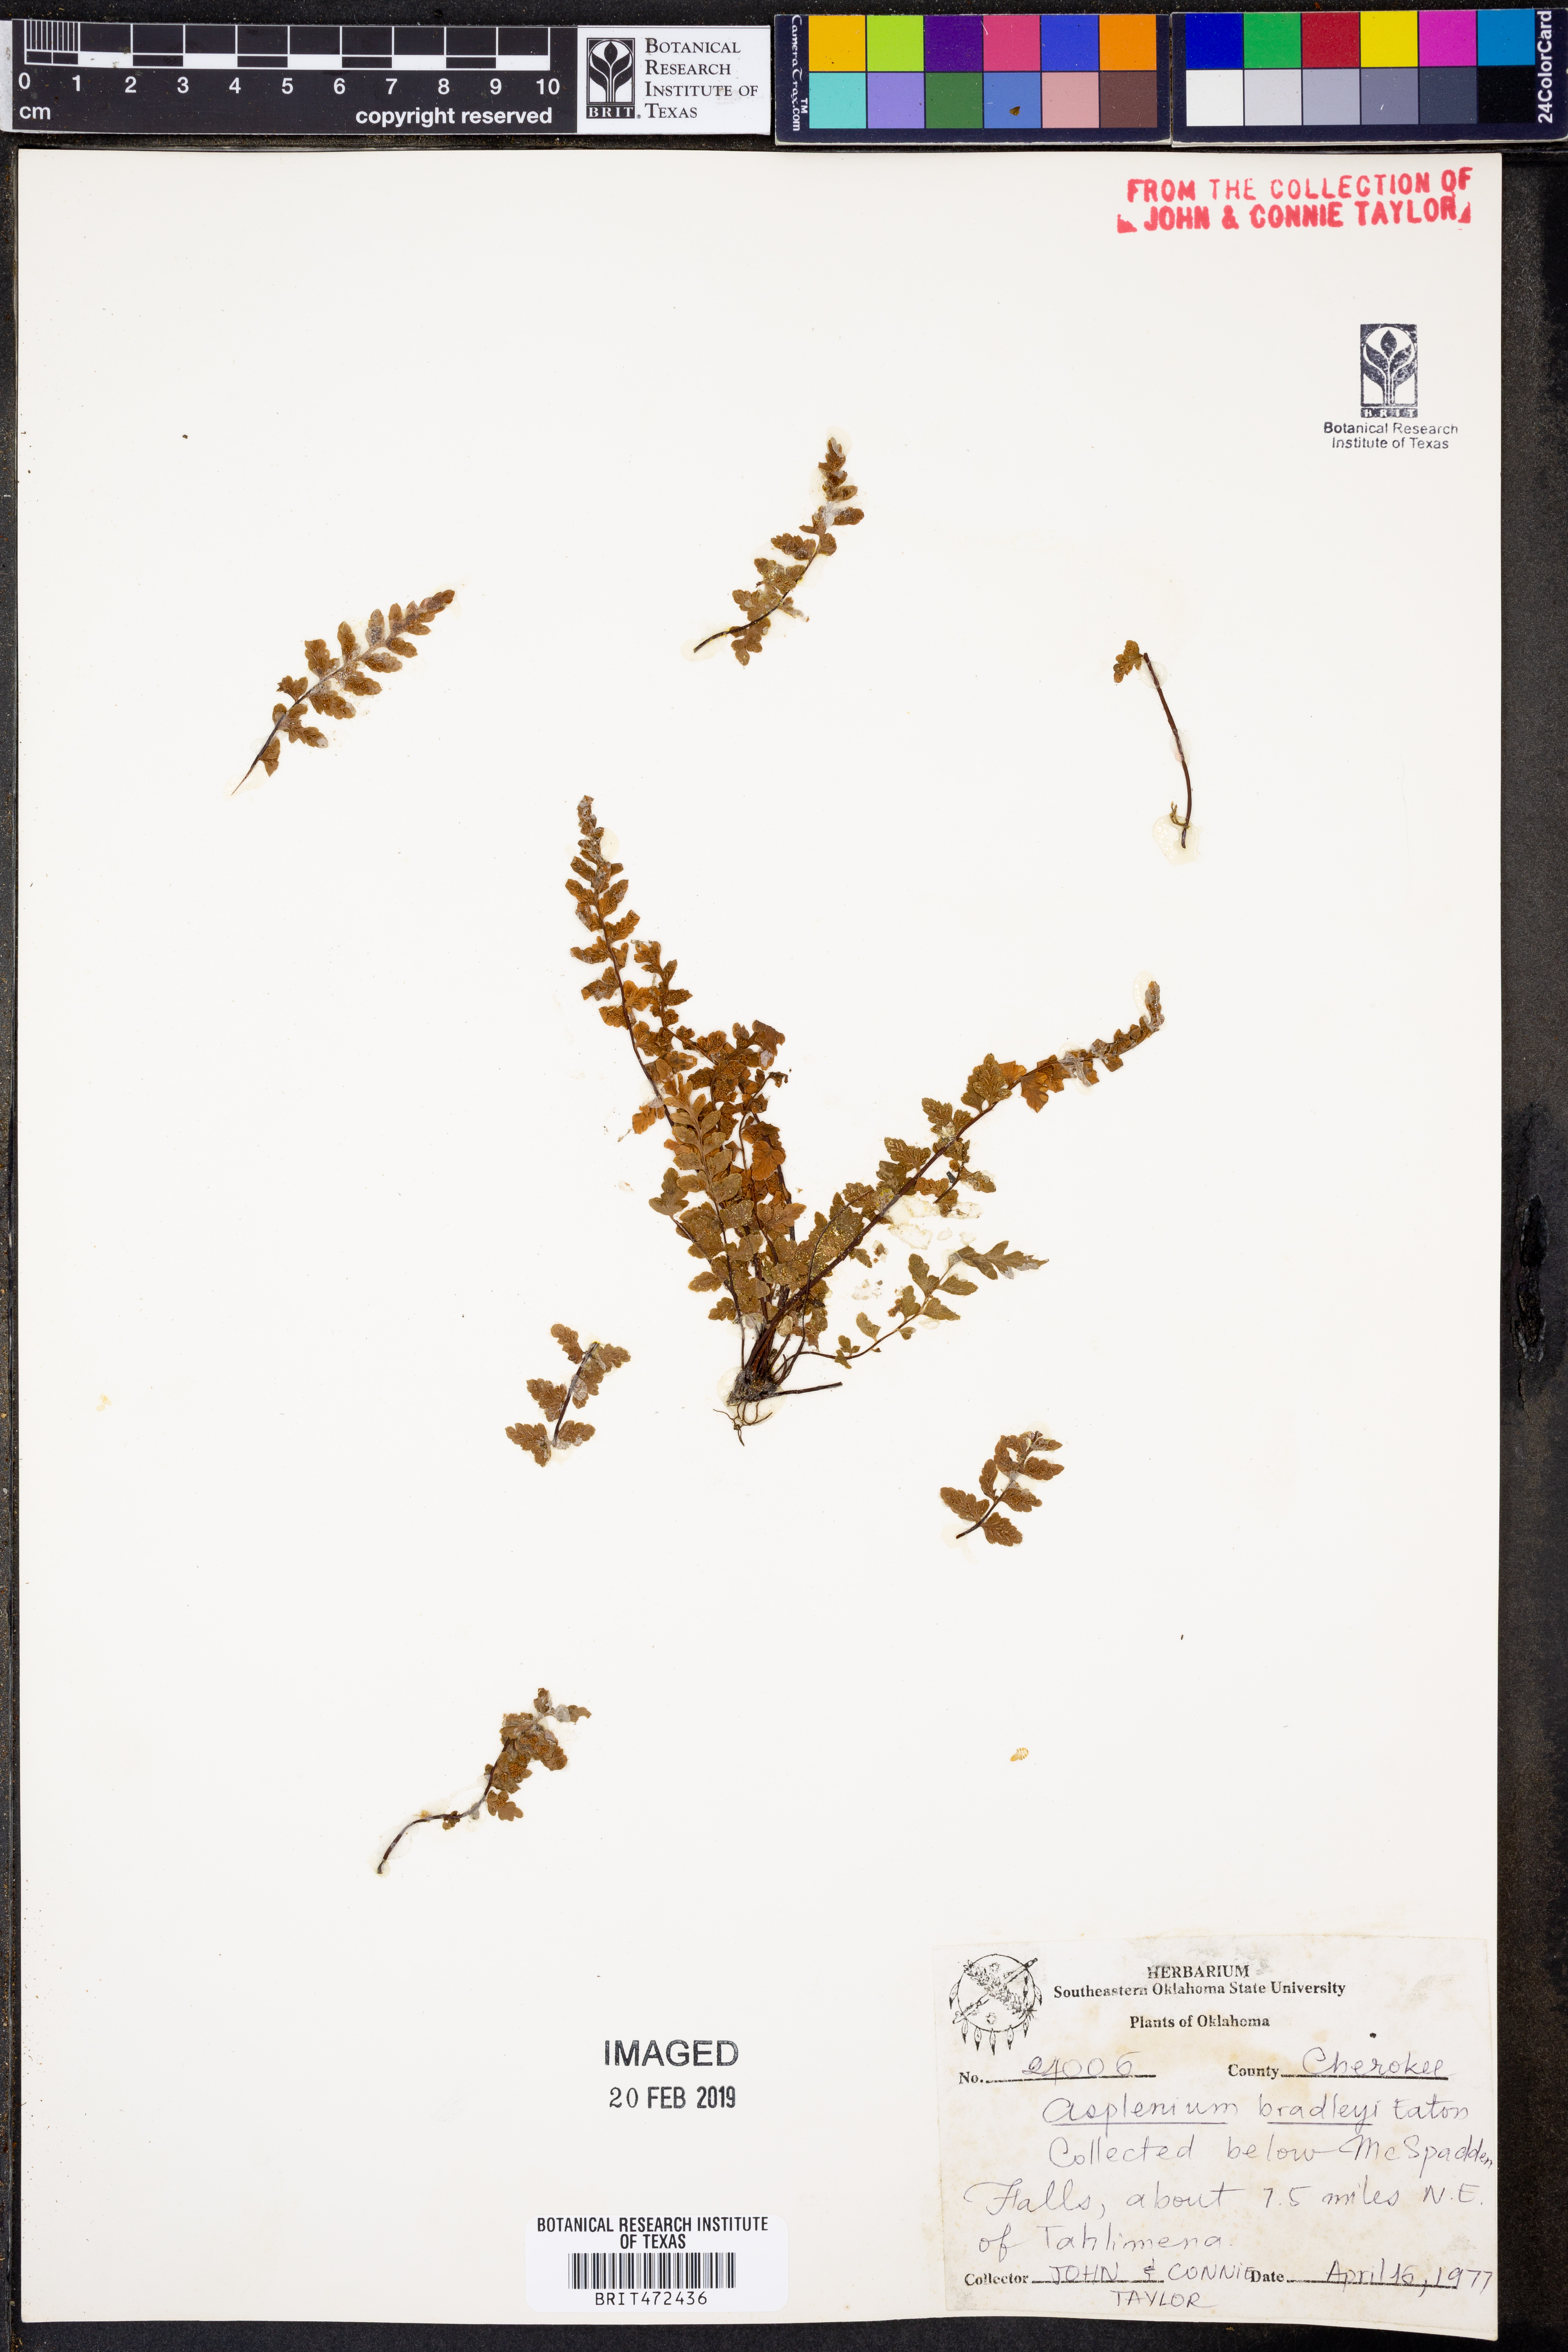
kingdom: Plantae
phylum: Tracheophyta
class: Polypodiopsida
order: Polypodiales
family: Aspleniaceae
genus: Asplenium
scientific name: Asplenium bradleyi
